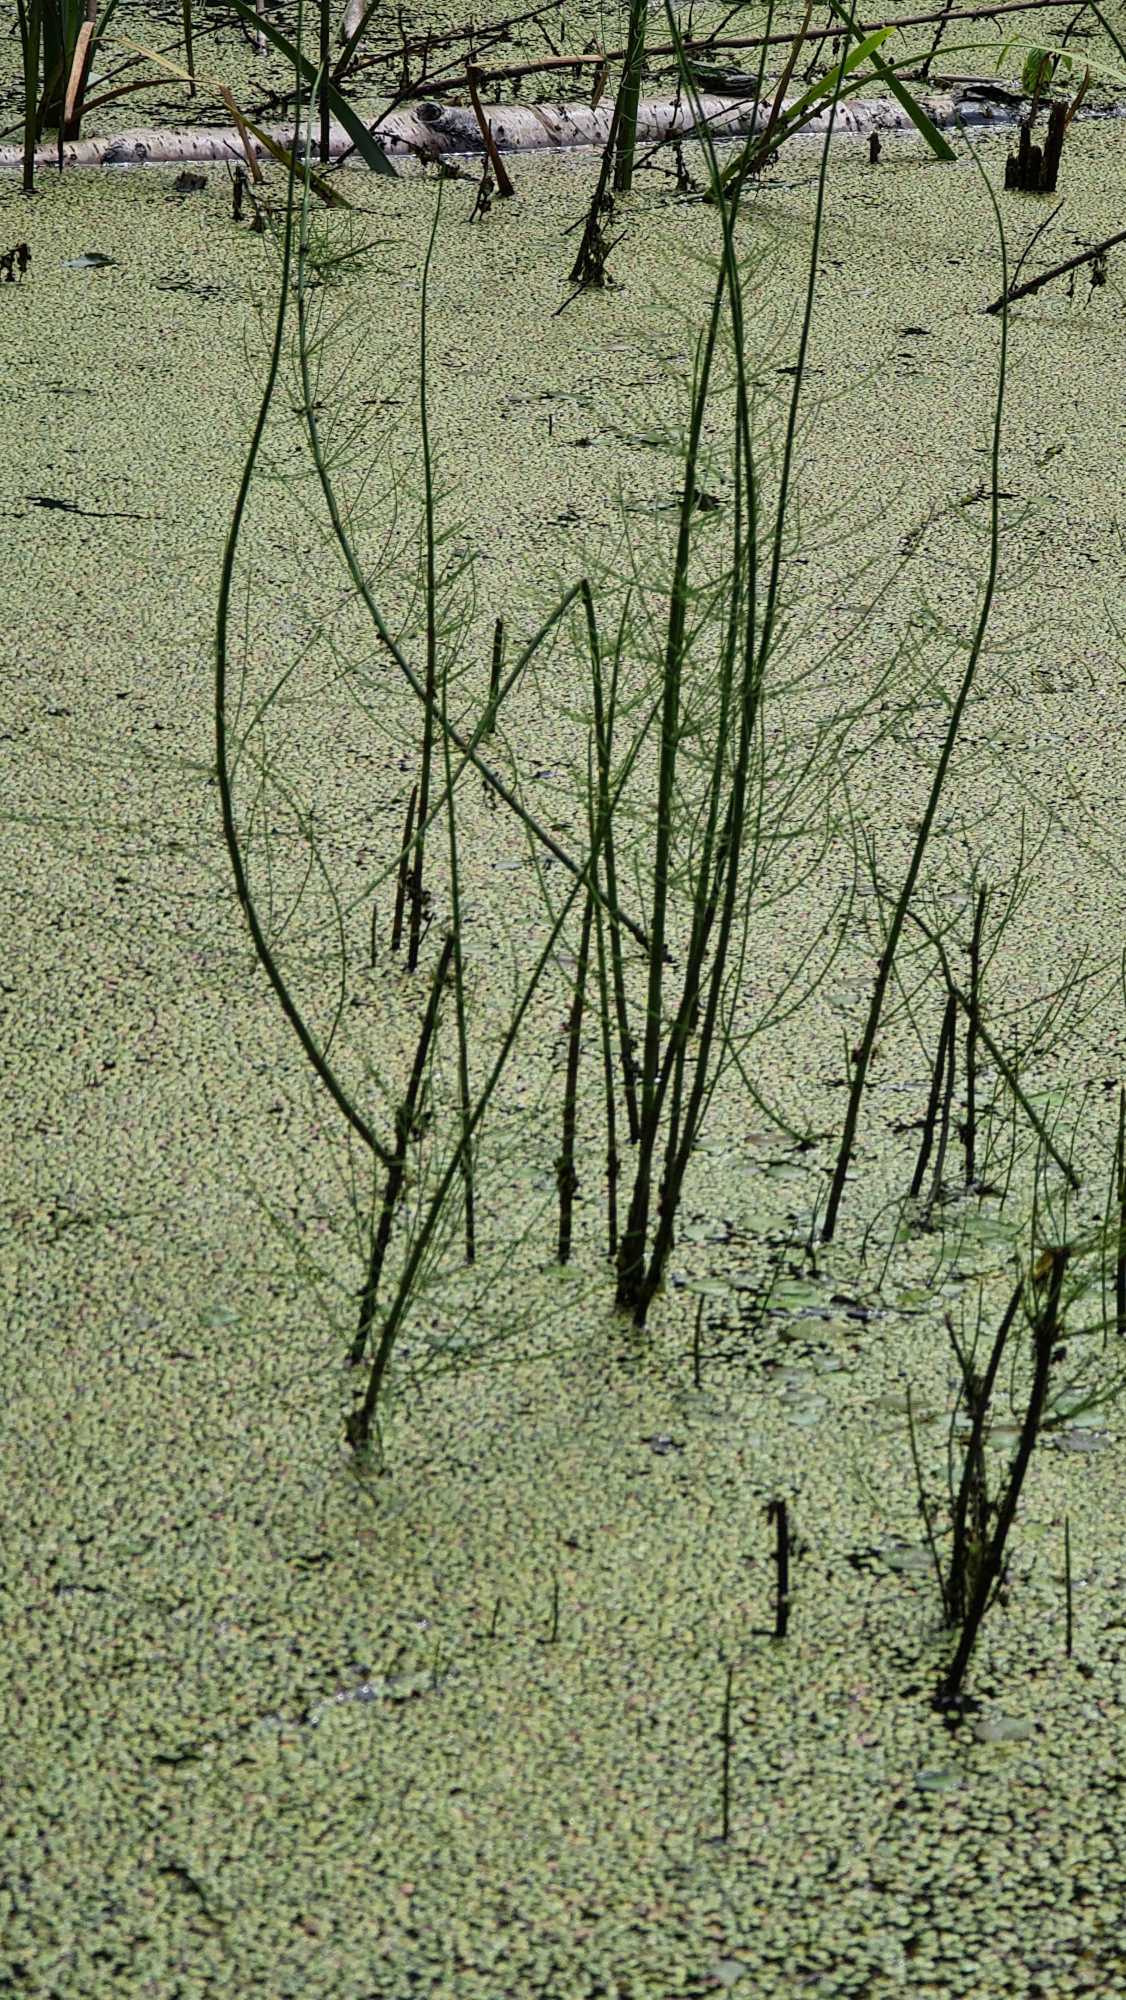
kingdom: Plantae
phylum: Tracheophyta
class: Polypodiopsida
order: Equisetales
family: Equisetaceae
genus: Equisetum
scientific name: Equisetum fluviatile
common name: Dynd-padderok
